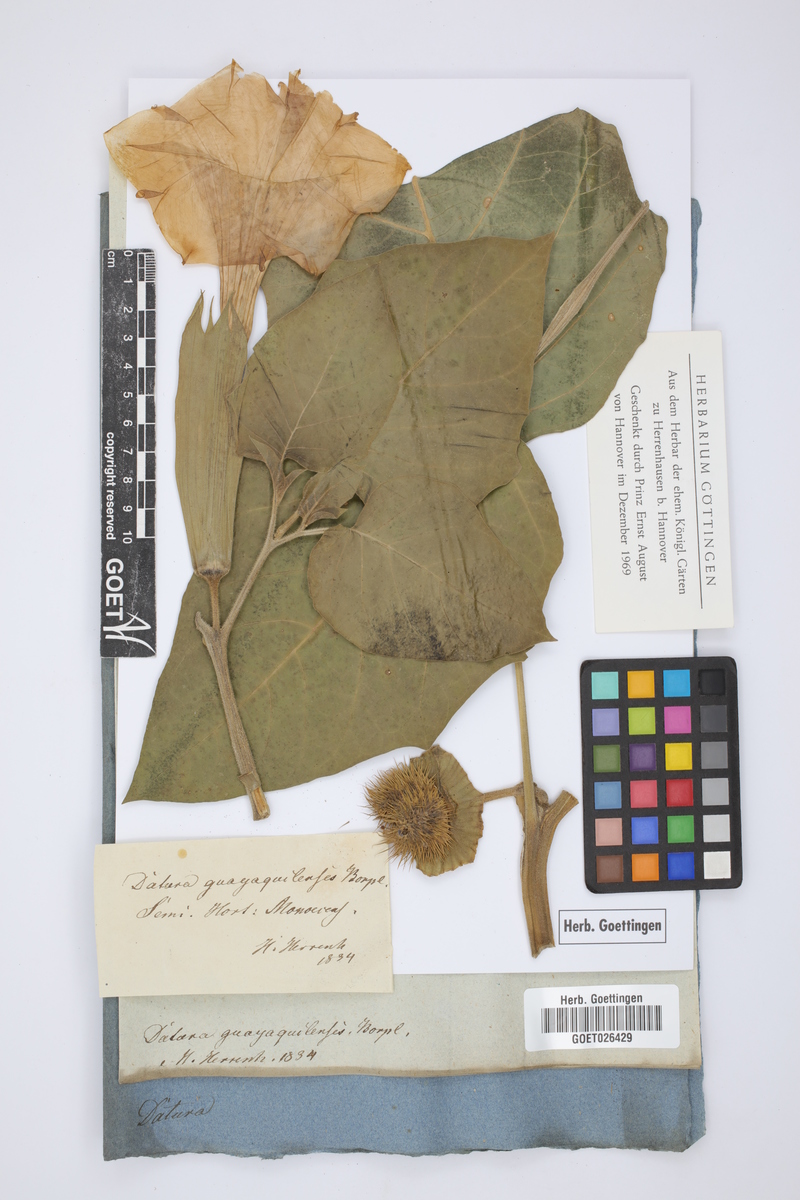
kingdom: Plantae
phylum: Tracheophyta
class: Magnoliopsida
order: Solanales
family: Solanaceae
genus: Datura
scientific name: Datura innoxia
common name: Downy thorn-apple
